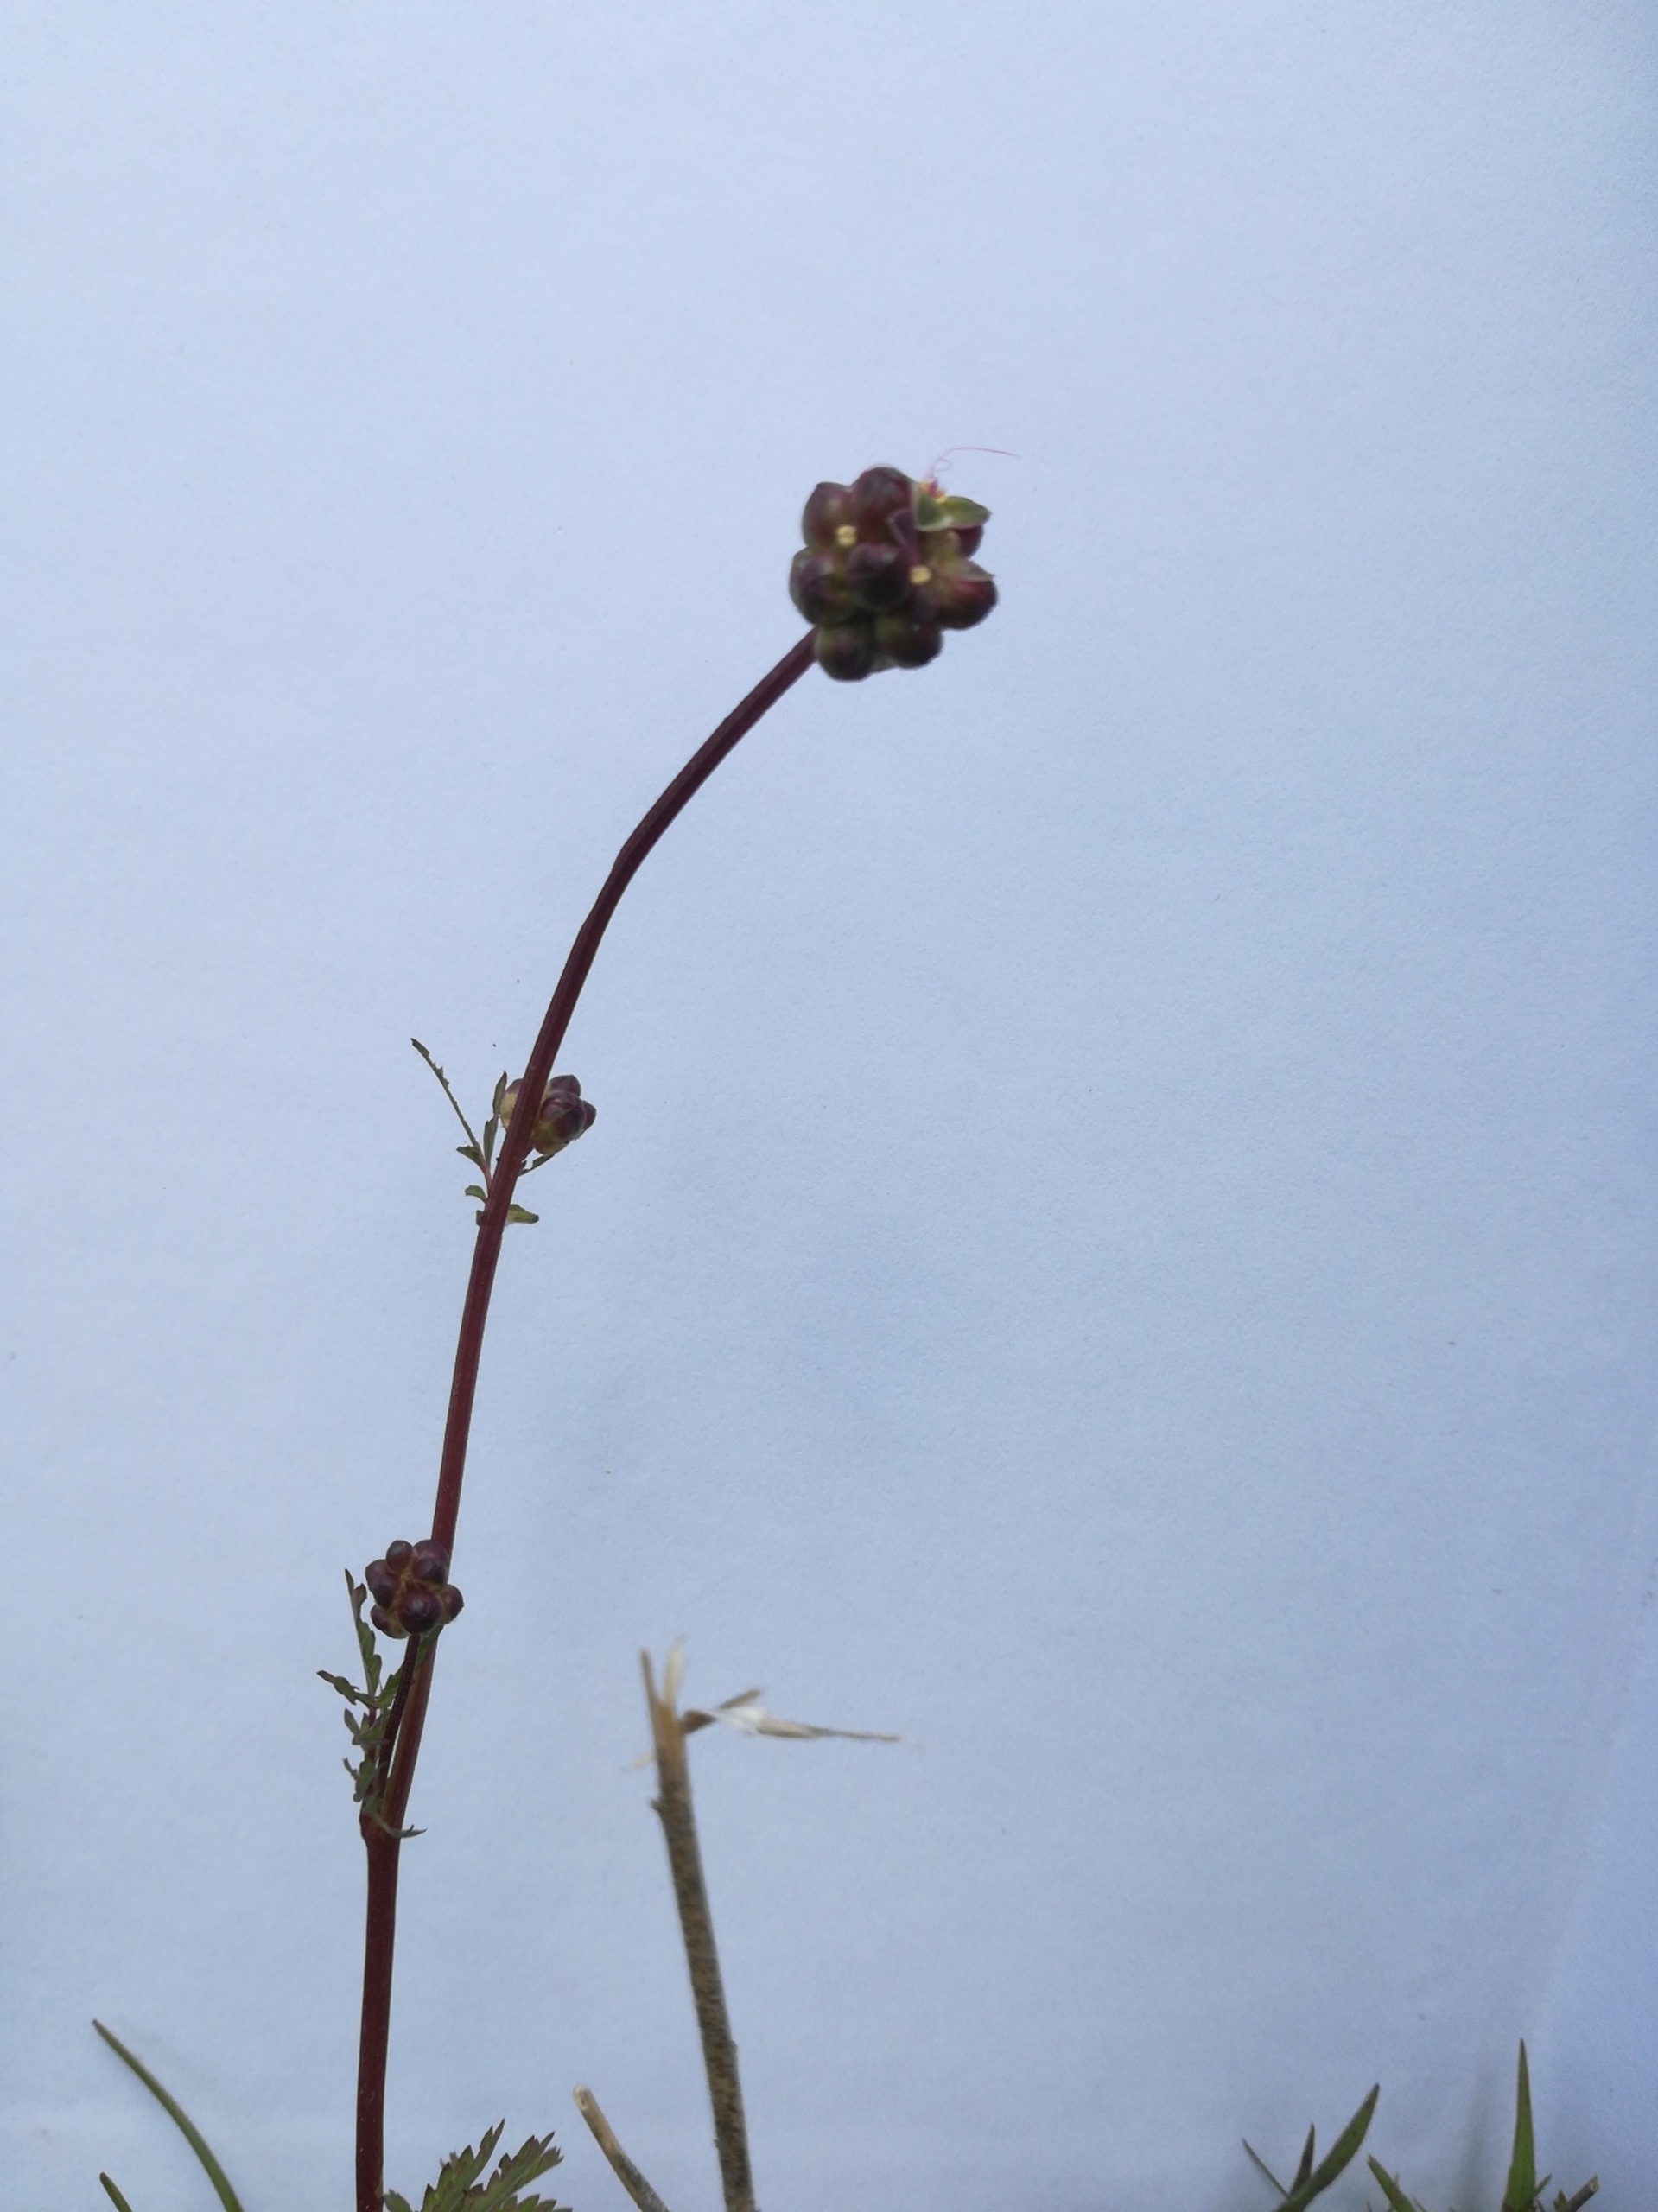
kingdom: Plantae
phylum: Tracheophyta
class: Magnoliopsida
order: Rosales
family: Rosaceae
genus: Poterium
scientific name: Poterium sanguisorba
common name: Bibernelle
